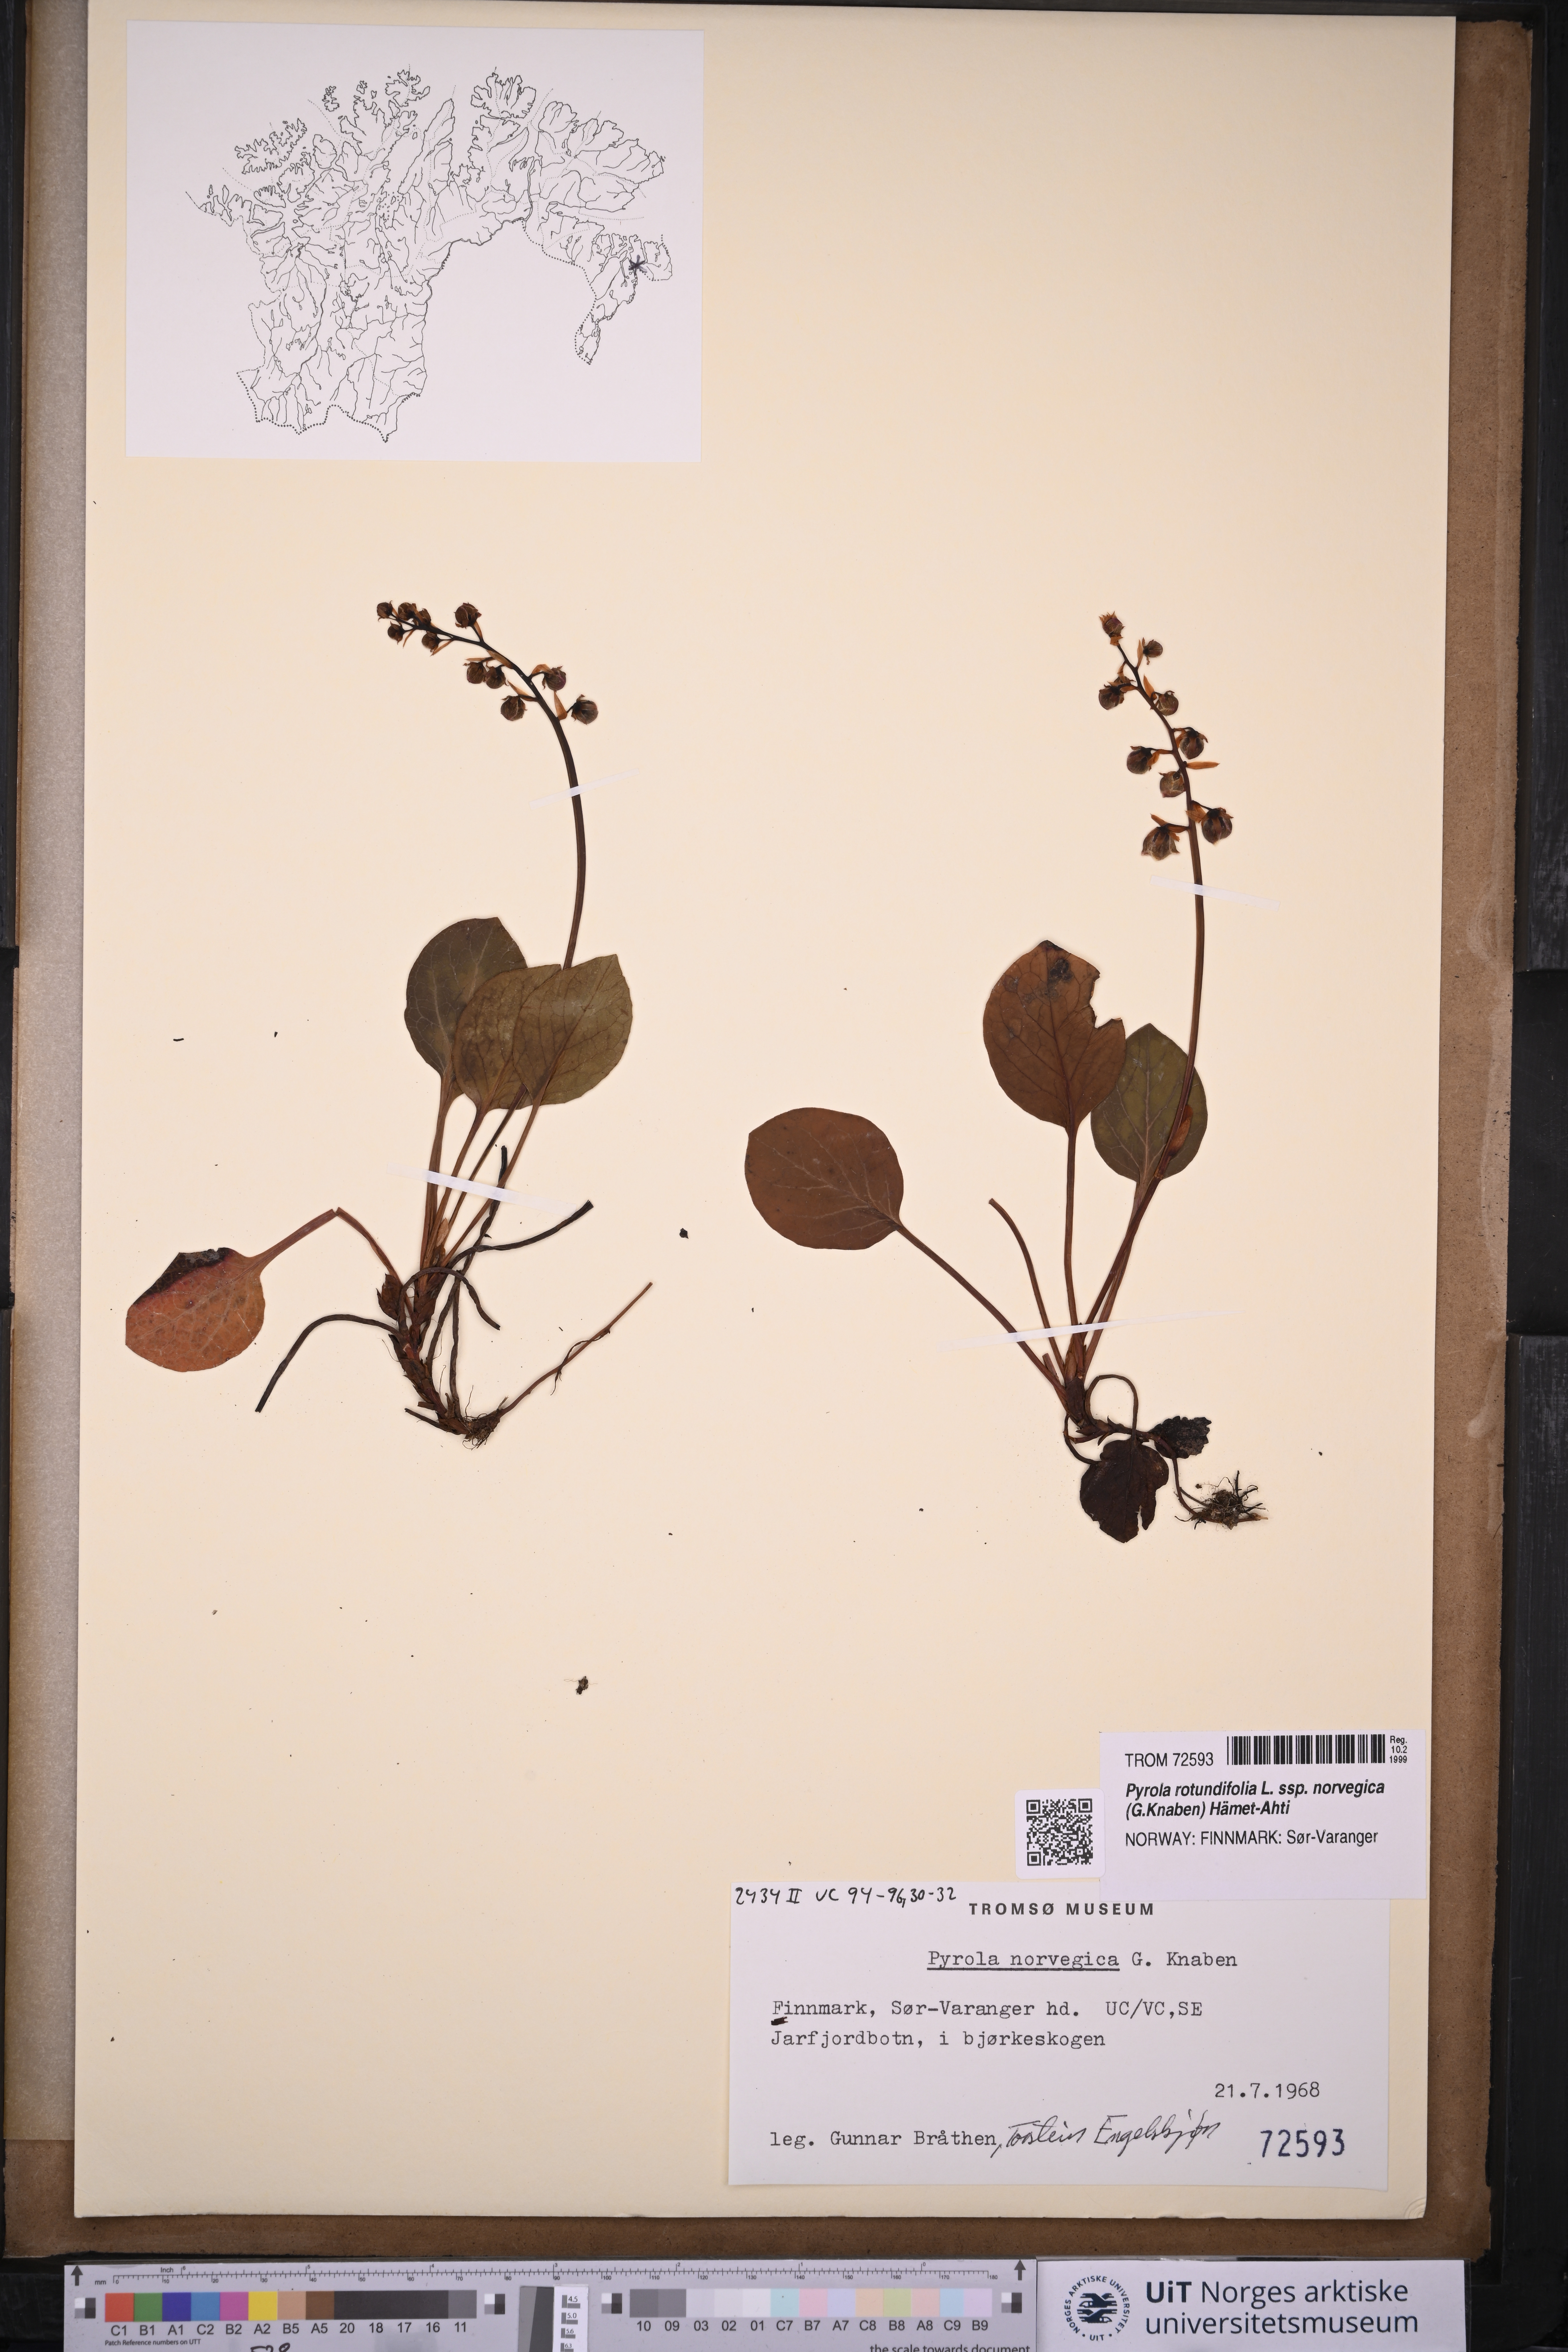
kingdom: Plantae
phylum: Tracheophyta
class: Magnoliopsida
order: Ericales
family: Ericaceae
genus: Pyrola
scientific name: Pyrola rotundifolia
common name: Round-leaved wintergreen
